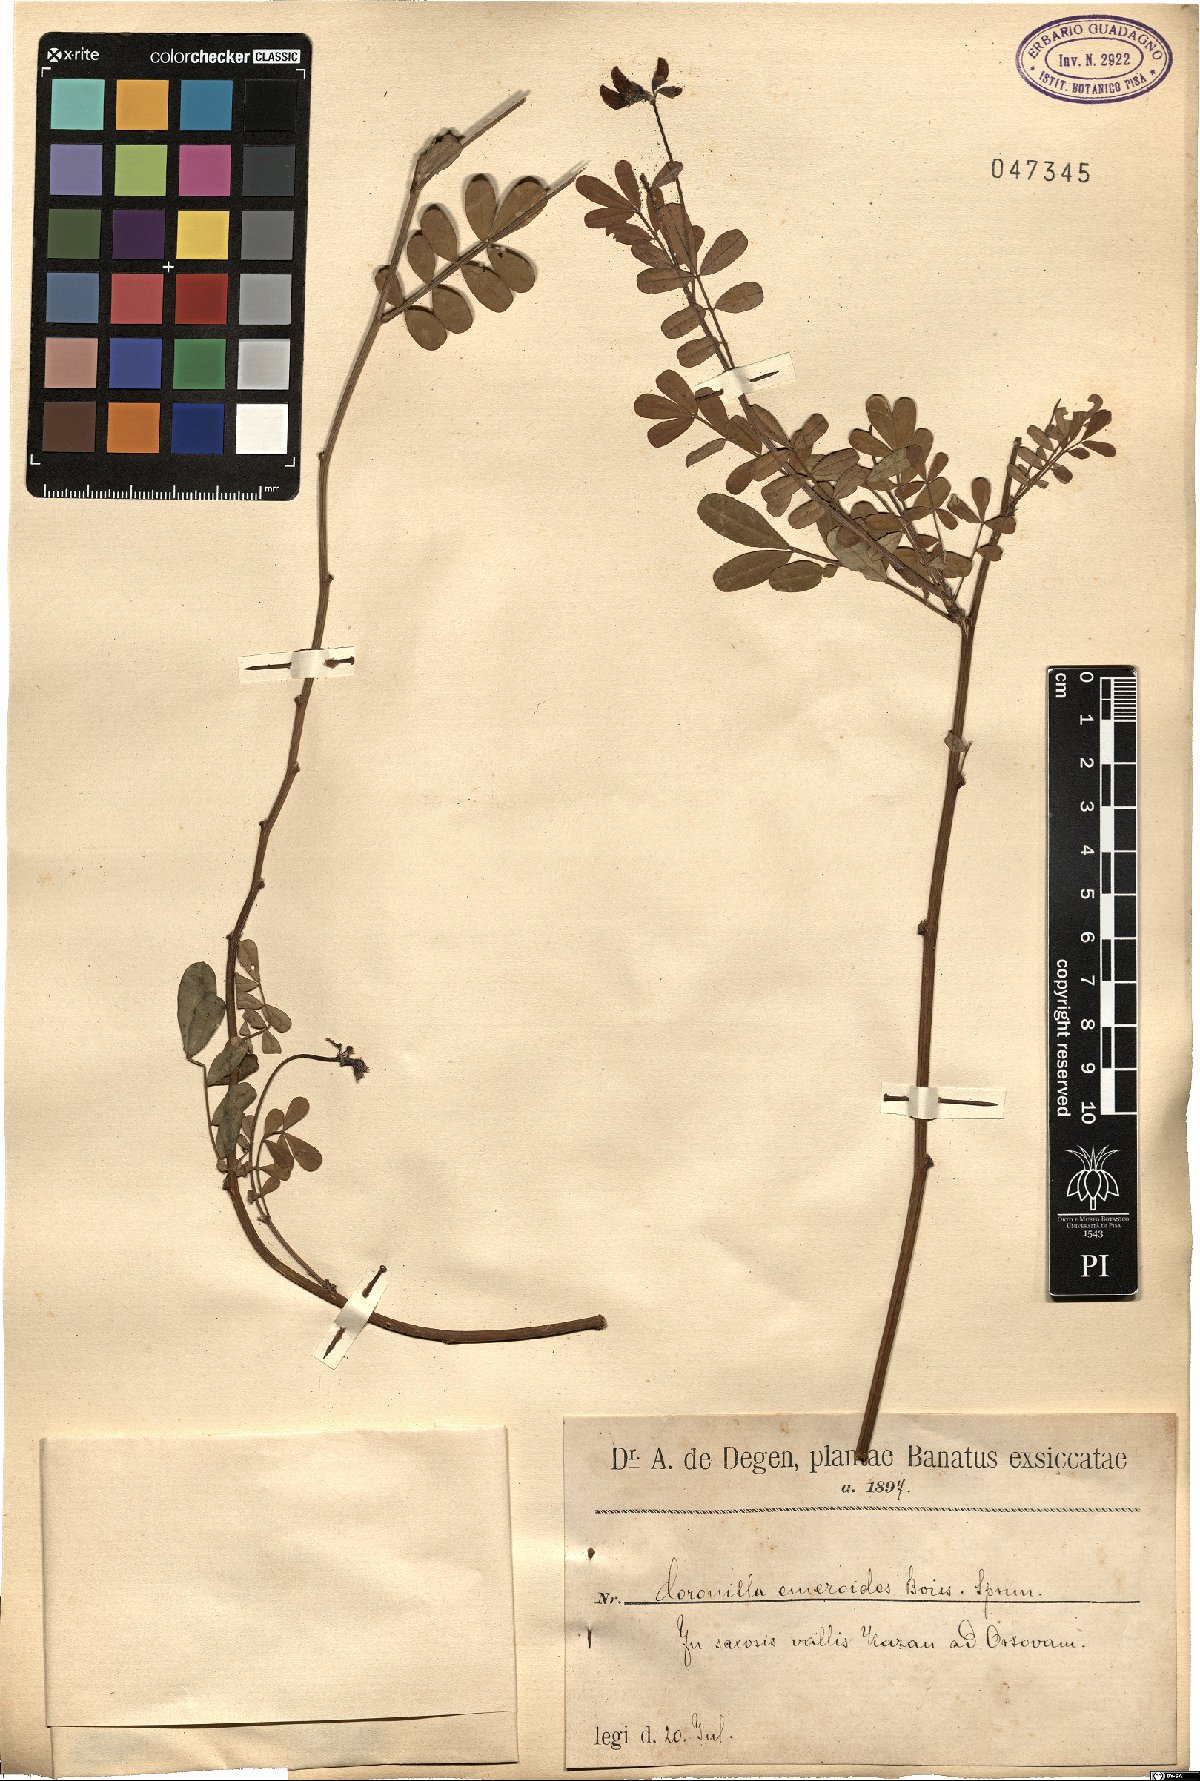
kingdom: Plantae
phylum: Tracheophyta
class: Magnoliopsida
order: Fabales
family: Fabaceae
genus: Hippocrepis
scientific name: Hippocrepis emerus
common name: Scorpion senna
